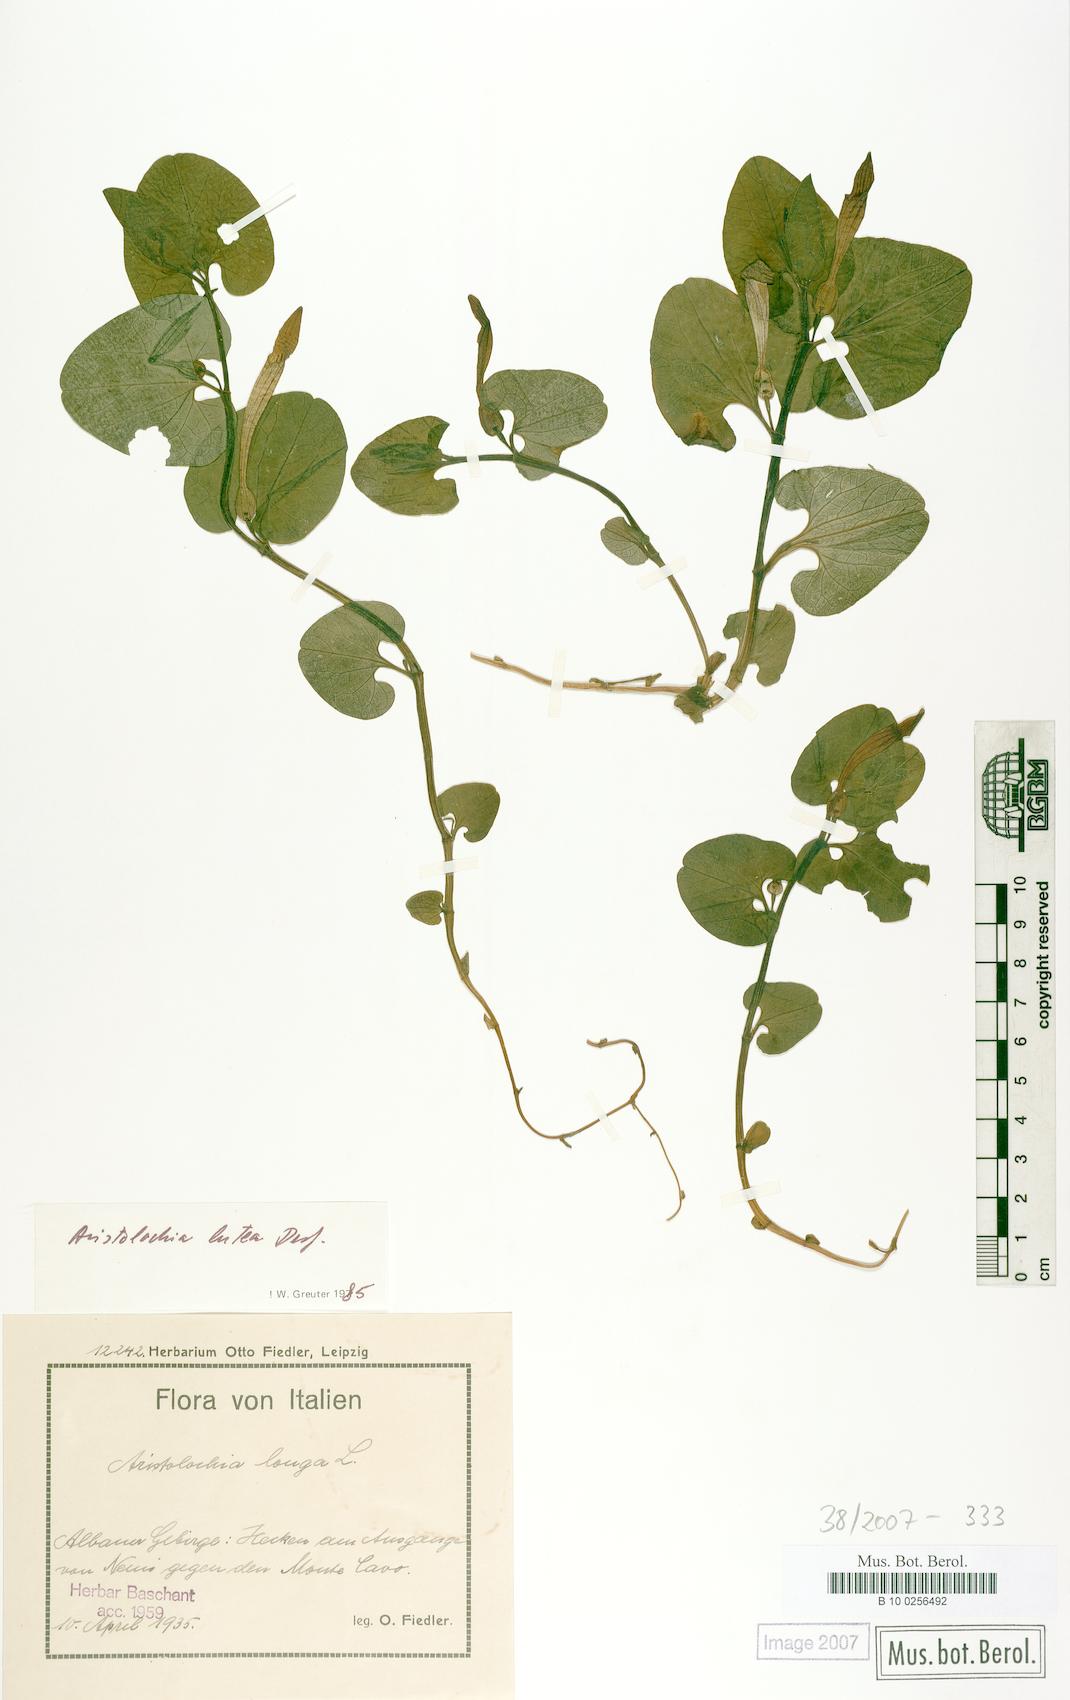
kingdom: Plantae
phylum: Tracheophyta
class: Magnoliopsida
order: Piperales
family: Aristolochiaceae
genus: Aristolochia
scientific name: Aristolochia lutea
